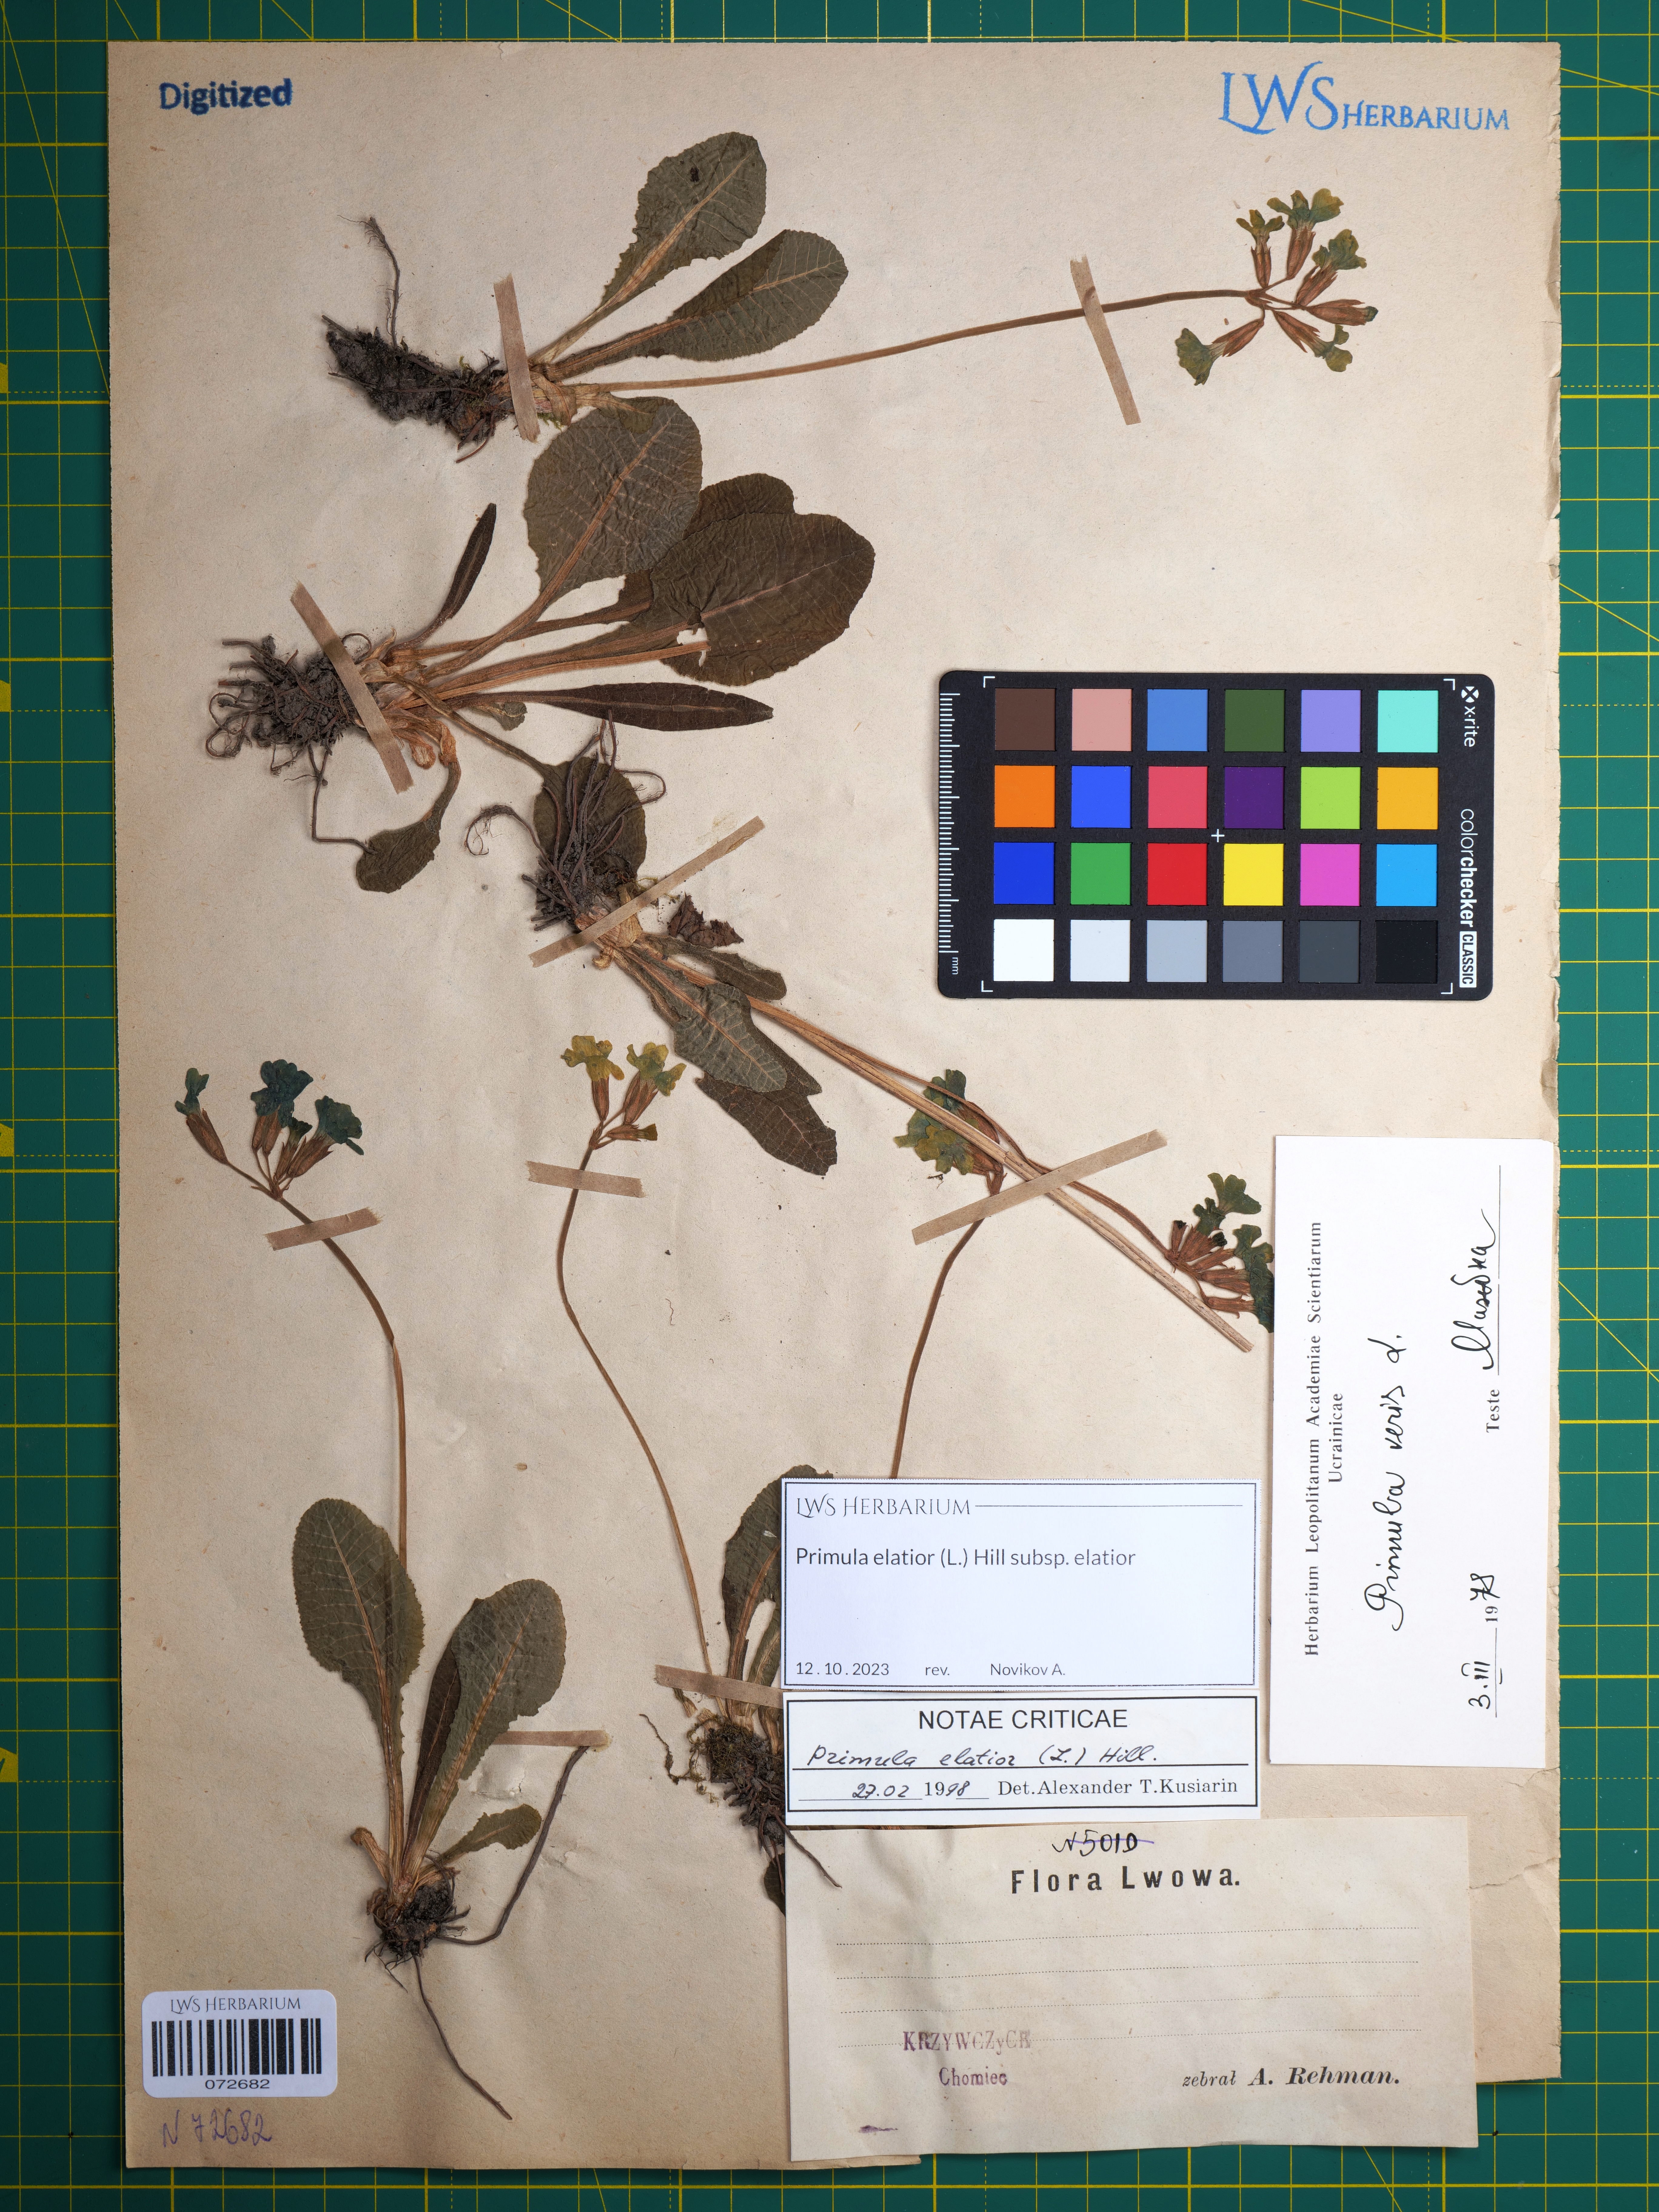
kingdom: Plantae
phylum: Tracheophyta
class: Magnoliopsida
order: Ericales
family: Primulaceae
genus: Primula
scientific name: Primula elatior
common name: Oxlip
